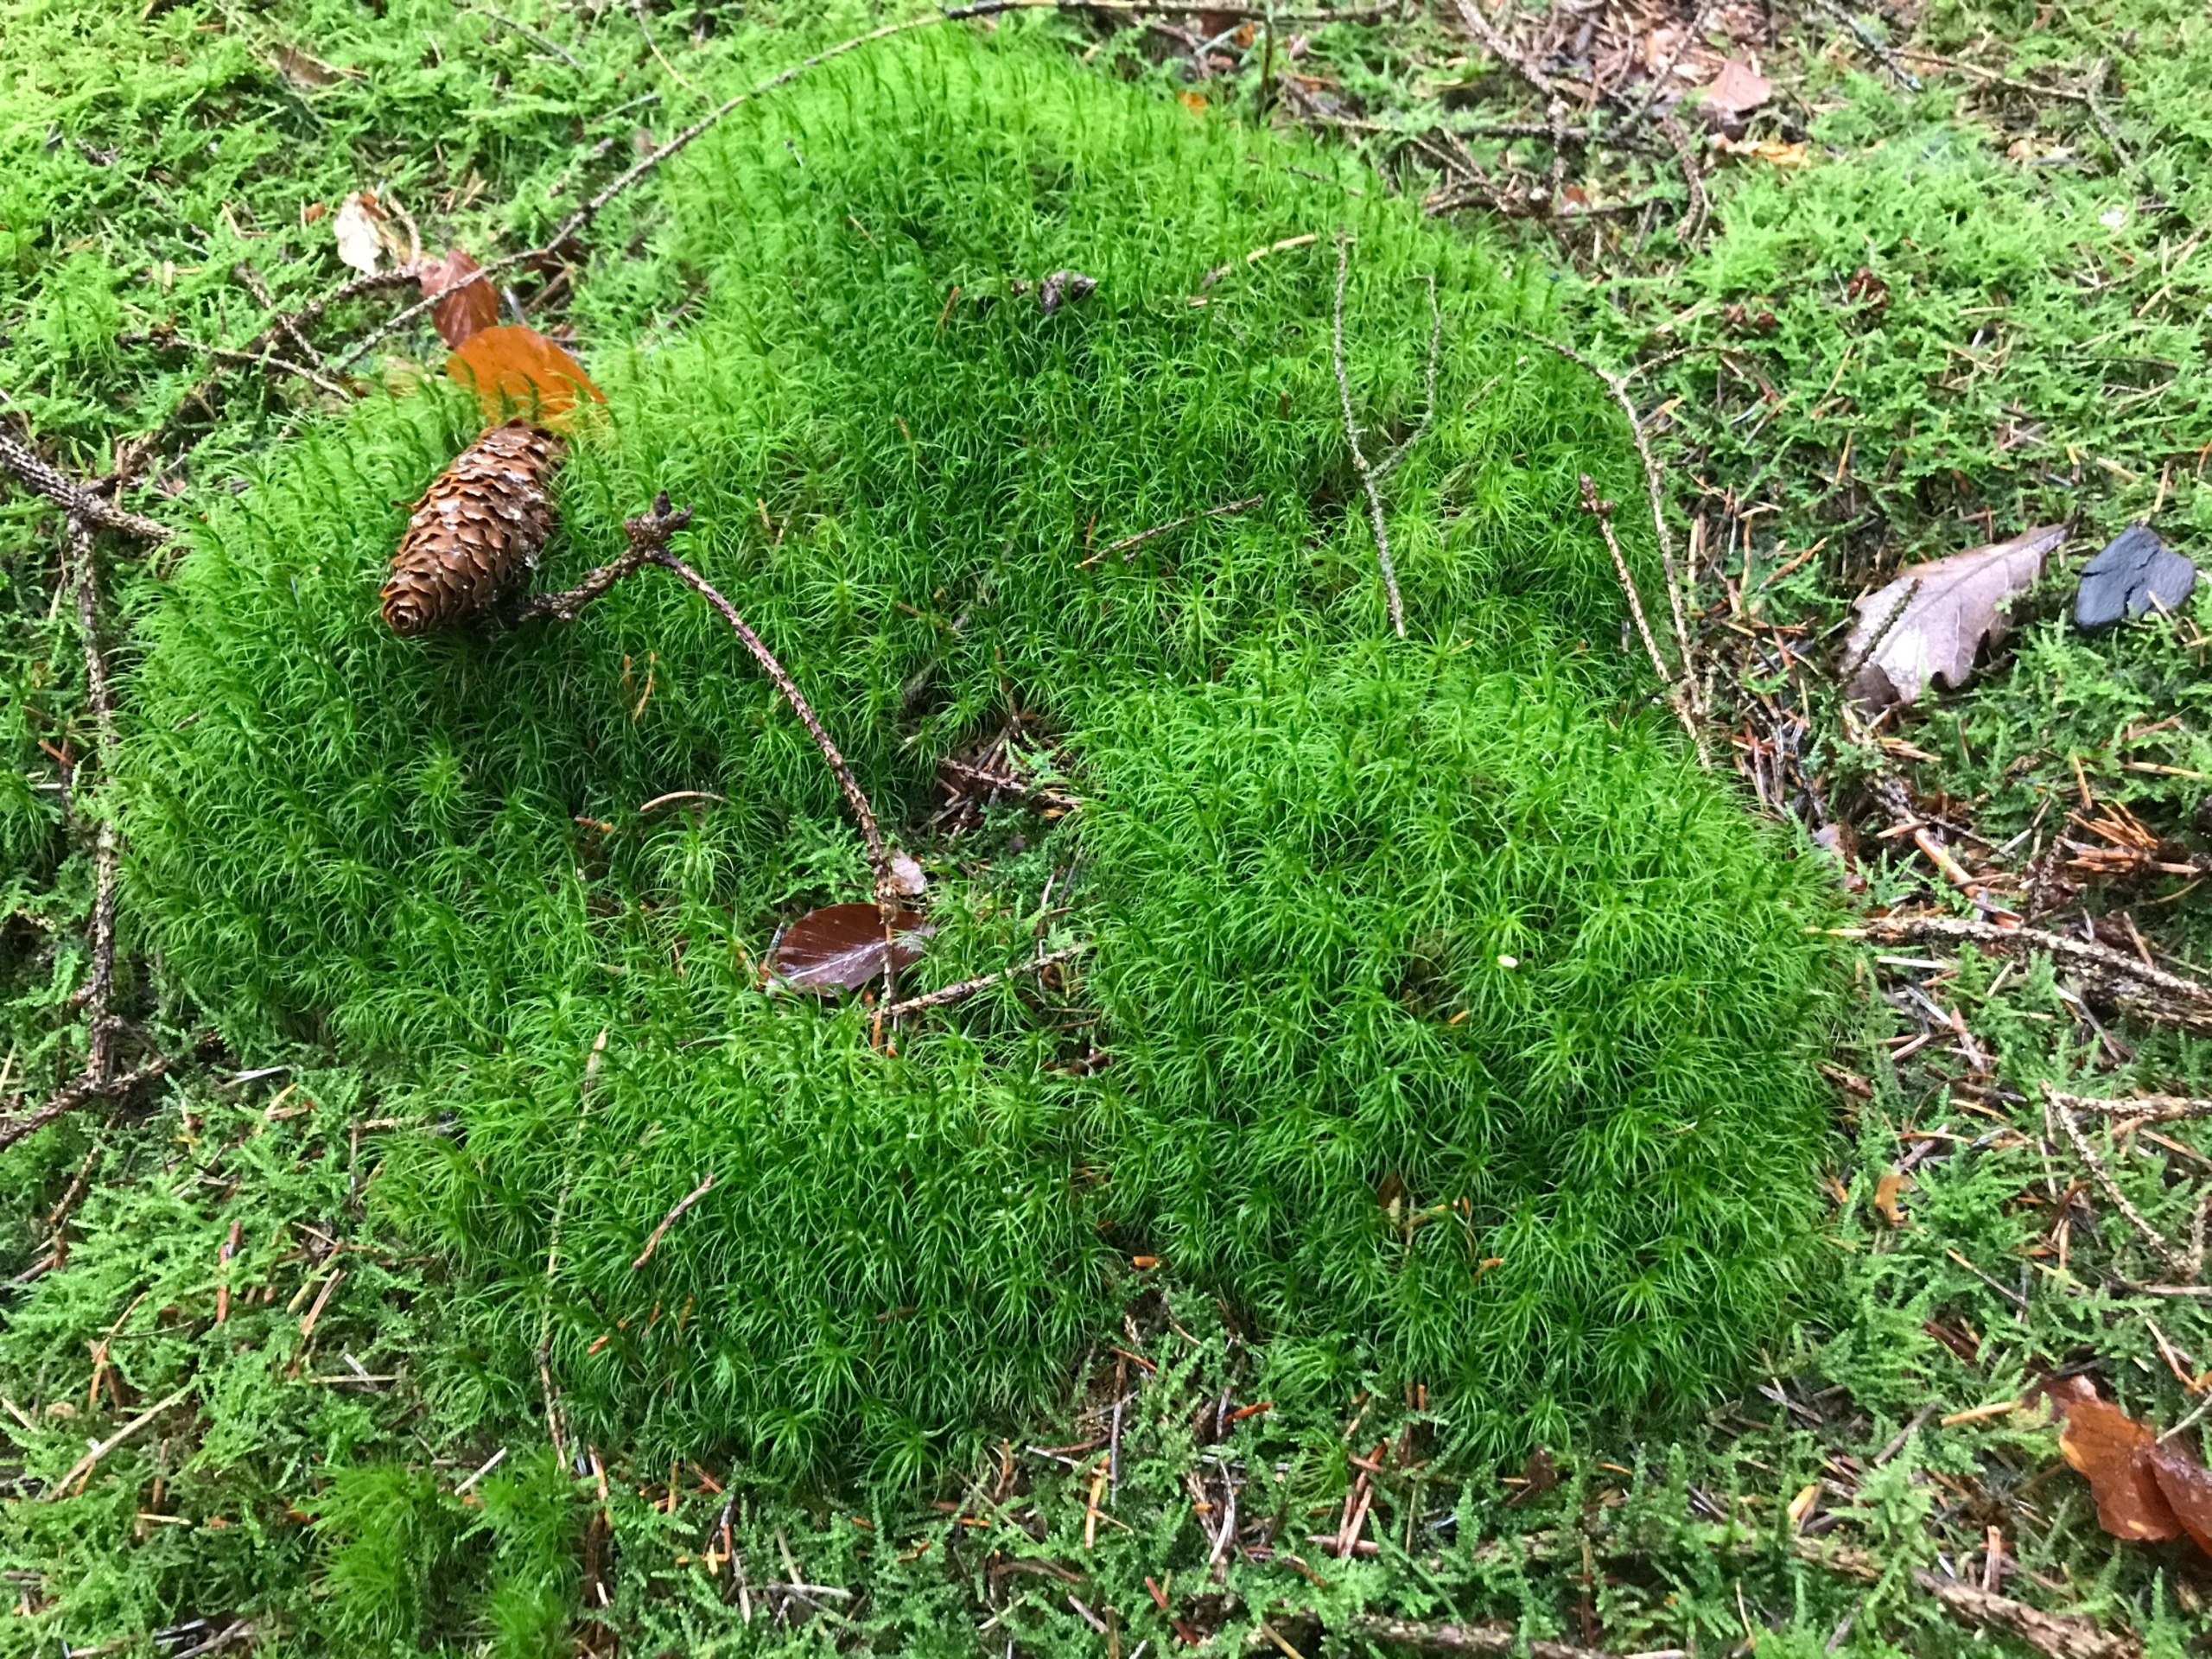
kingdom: Plantae
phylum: Bryophyta
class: Bryopsida
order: Dicranales
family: Dicranaceae
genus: Dicranum
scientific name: Dicranum majus
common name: Stor kløvtand
